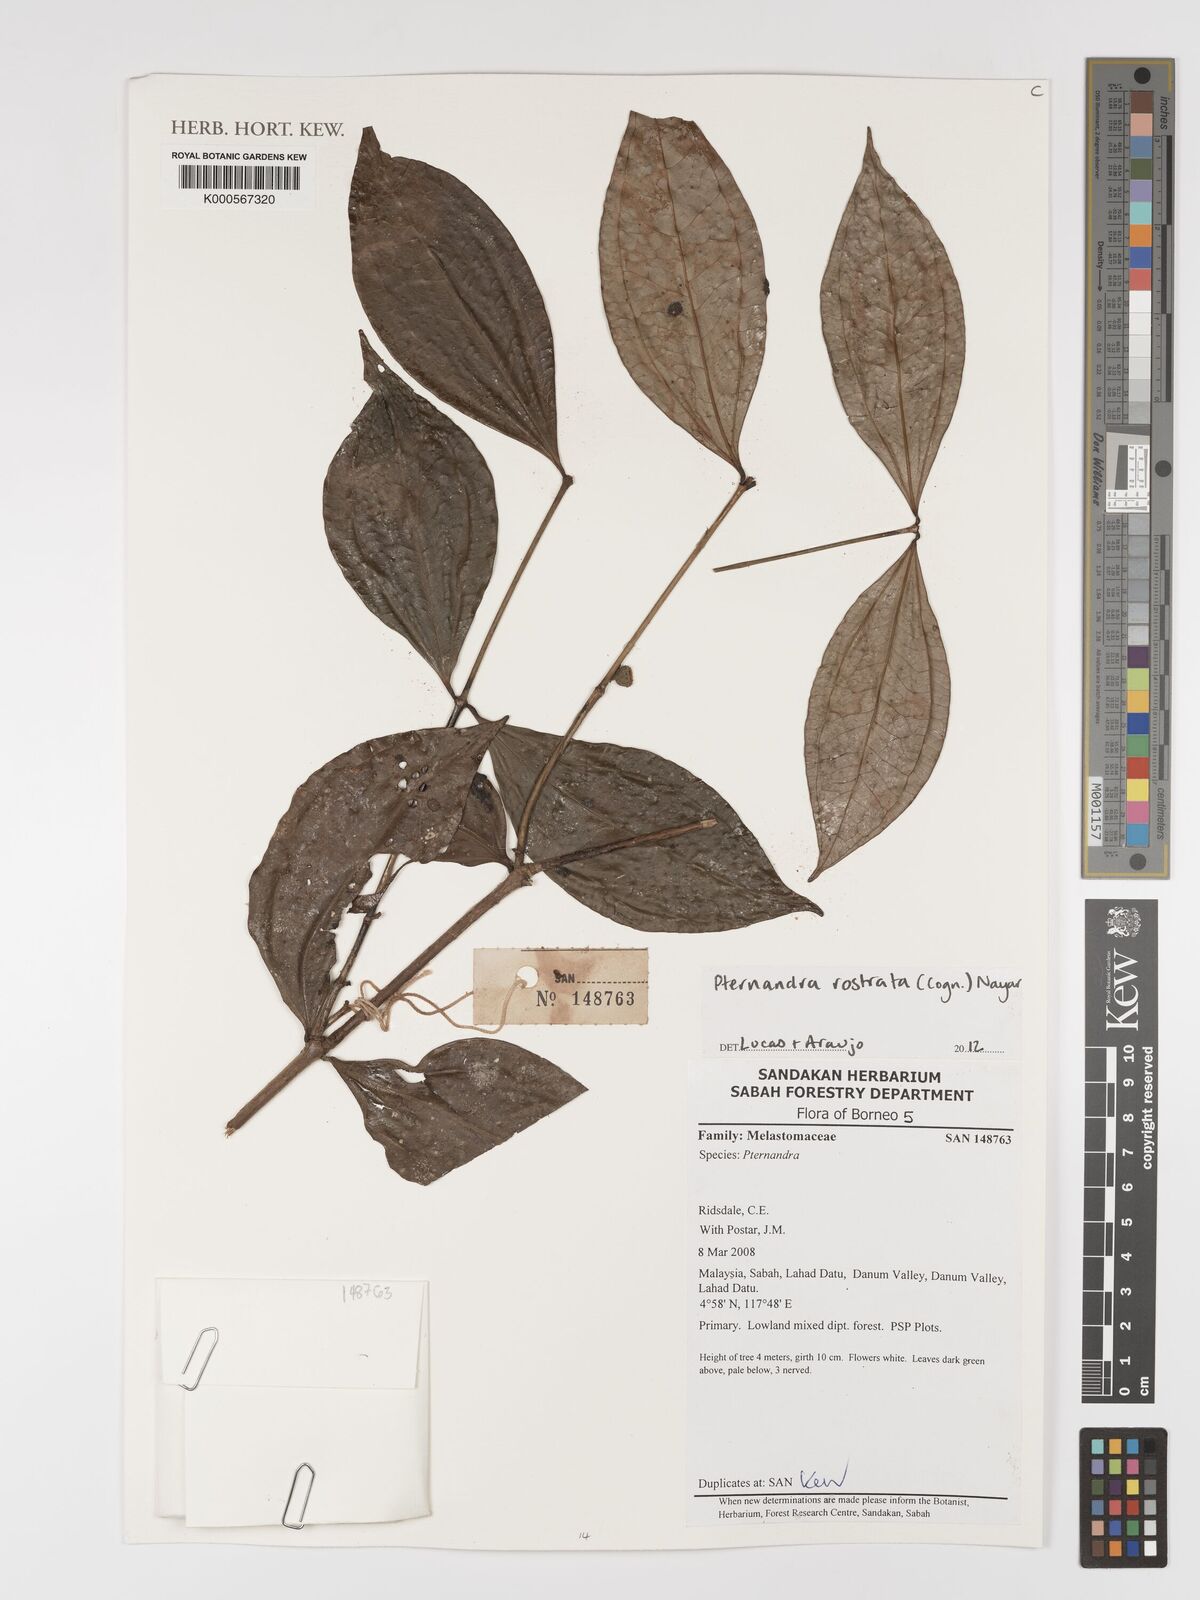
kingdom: Plantae
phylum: Tracheophyta
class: Magnoliopsida
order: Myrtales
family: Melastomataceae
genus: Pternandra
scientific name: Pternandra rostrata
